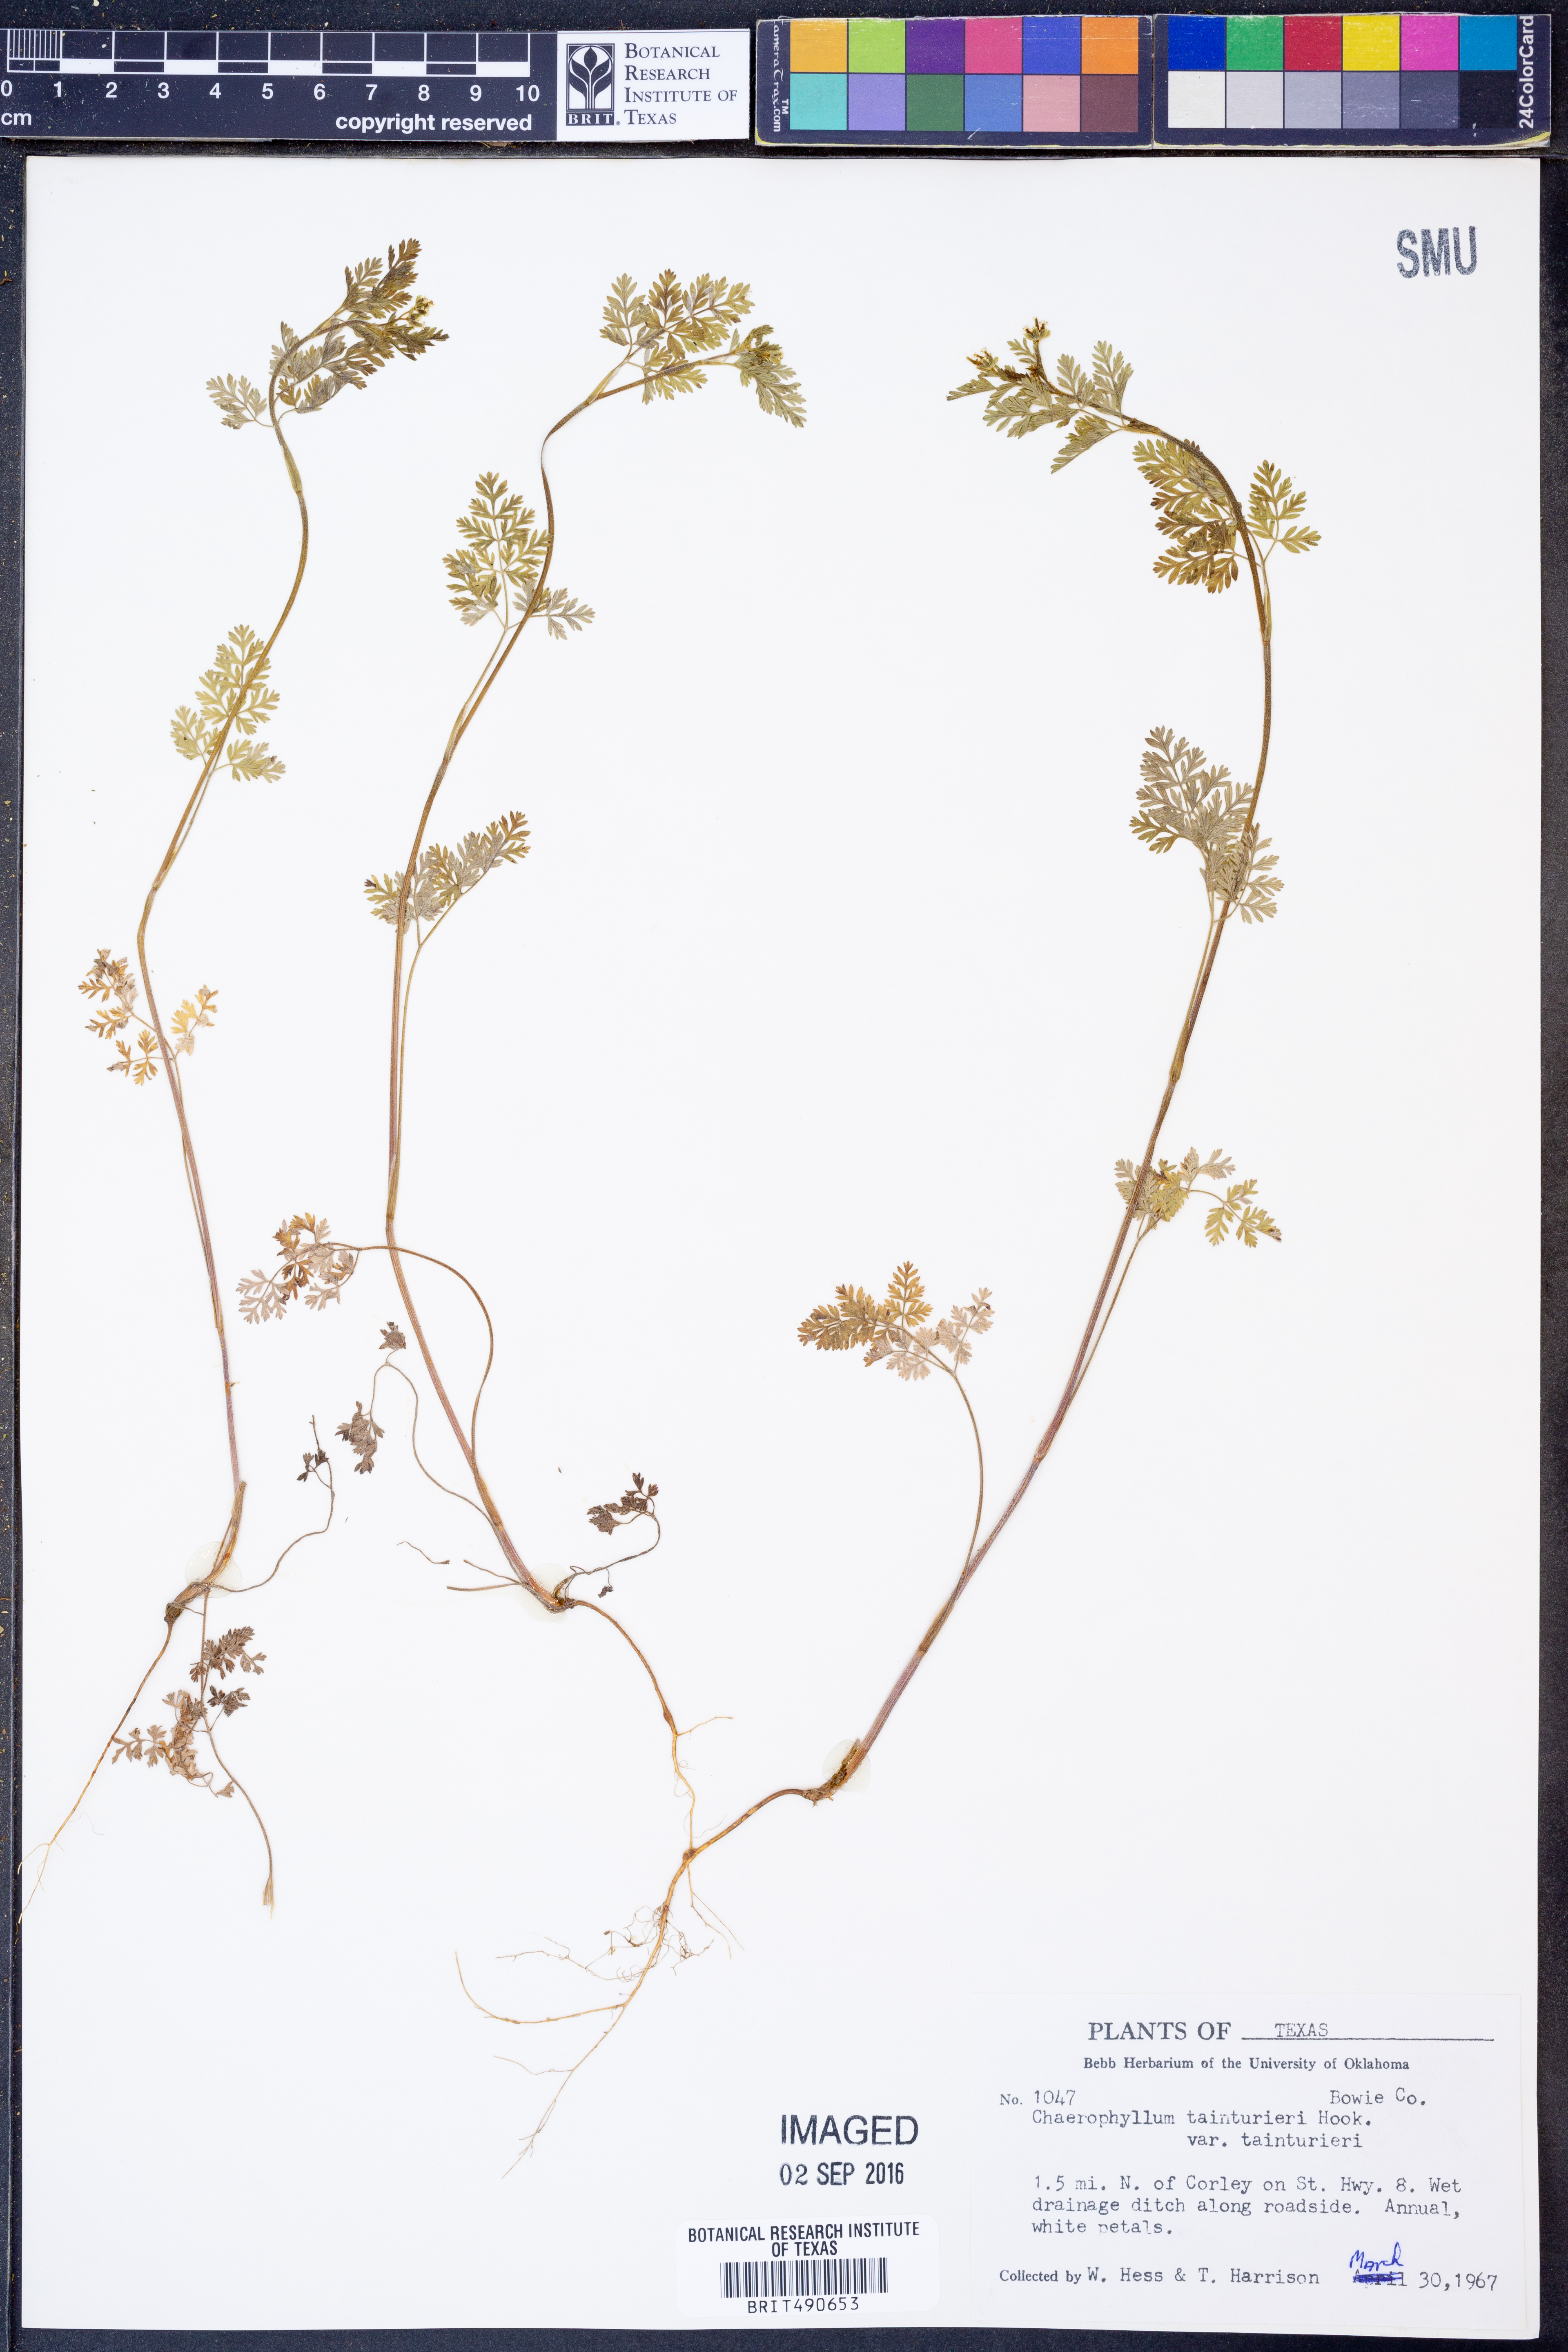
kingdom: Plantae
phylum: Tracheophyta
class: Magnoliopsida
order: Apiales
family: Apiaceae
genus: Chaerophyllum
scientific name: Chaerophyllum tainturieri
